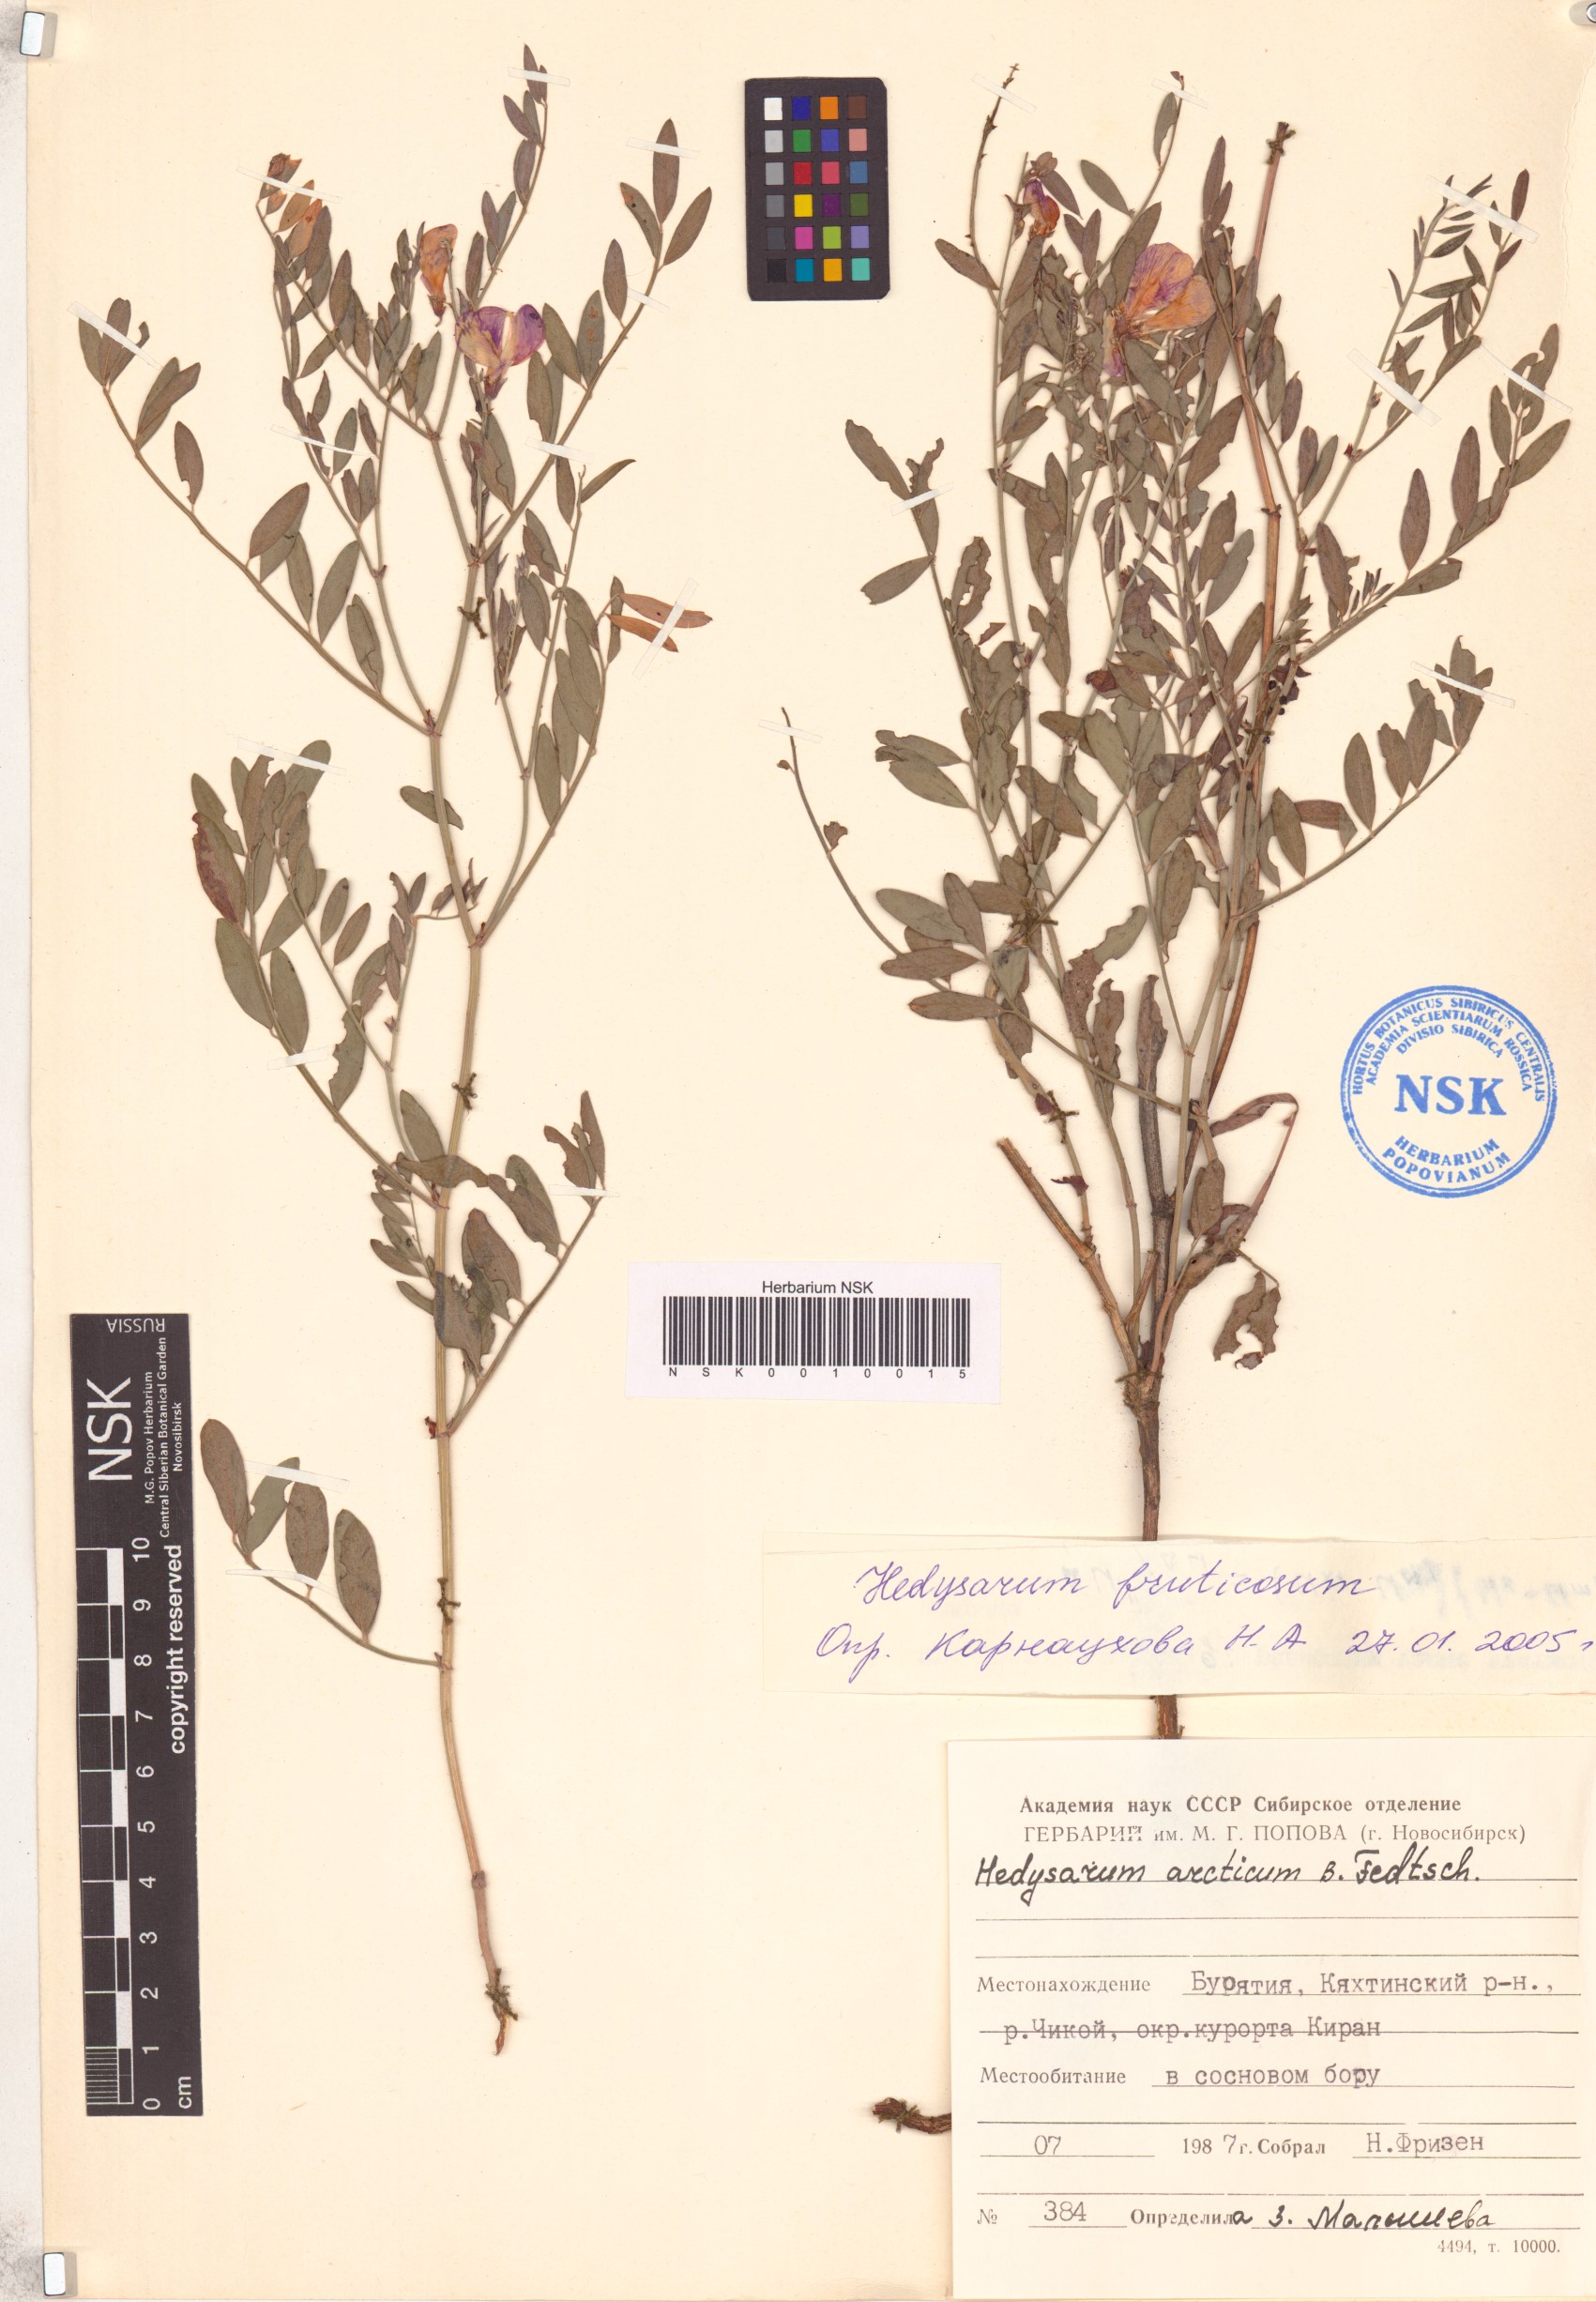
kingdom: Plantae
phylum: Tracheophyta
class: Magnoliopsida
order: Fabales
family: Fabaceae
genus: Corethrodendron
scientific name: Corethrodendron fruticosum
